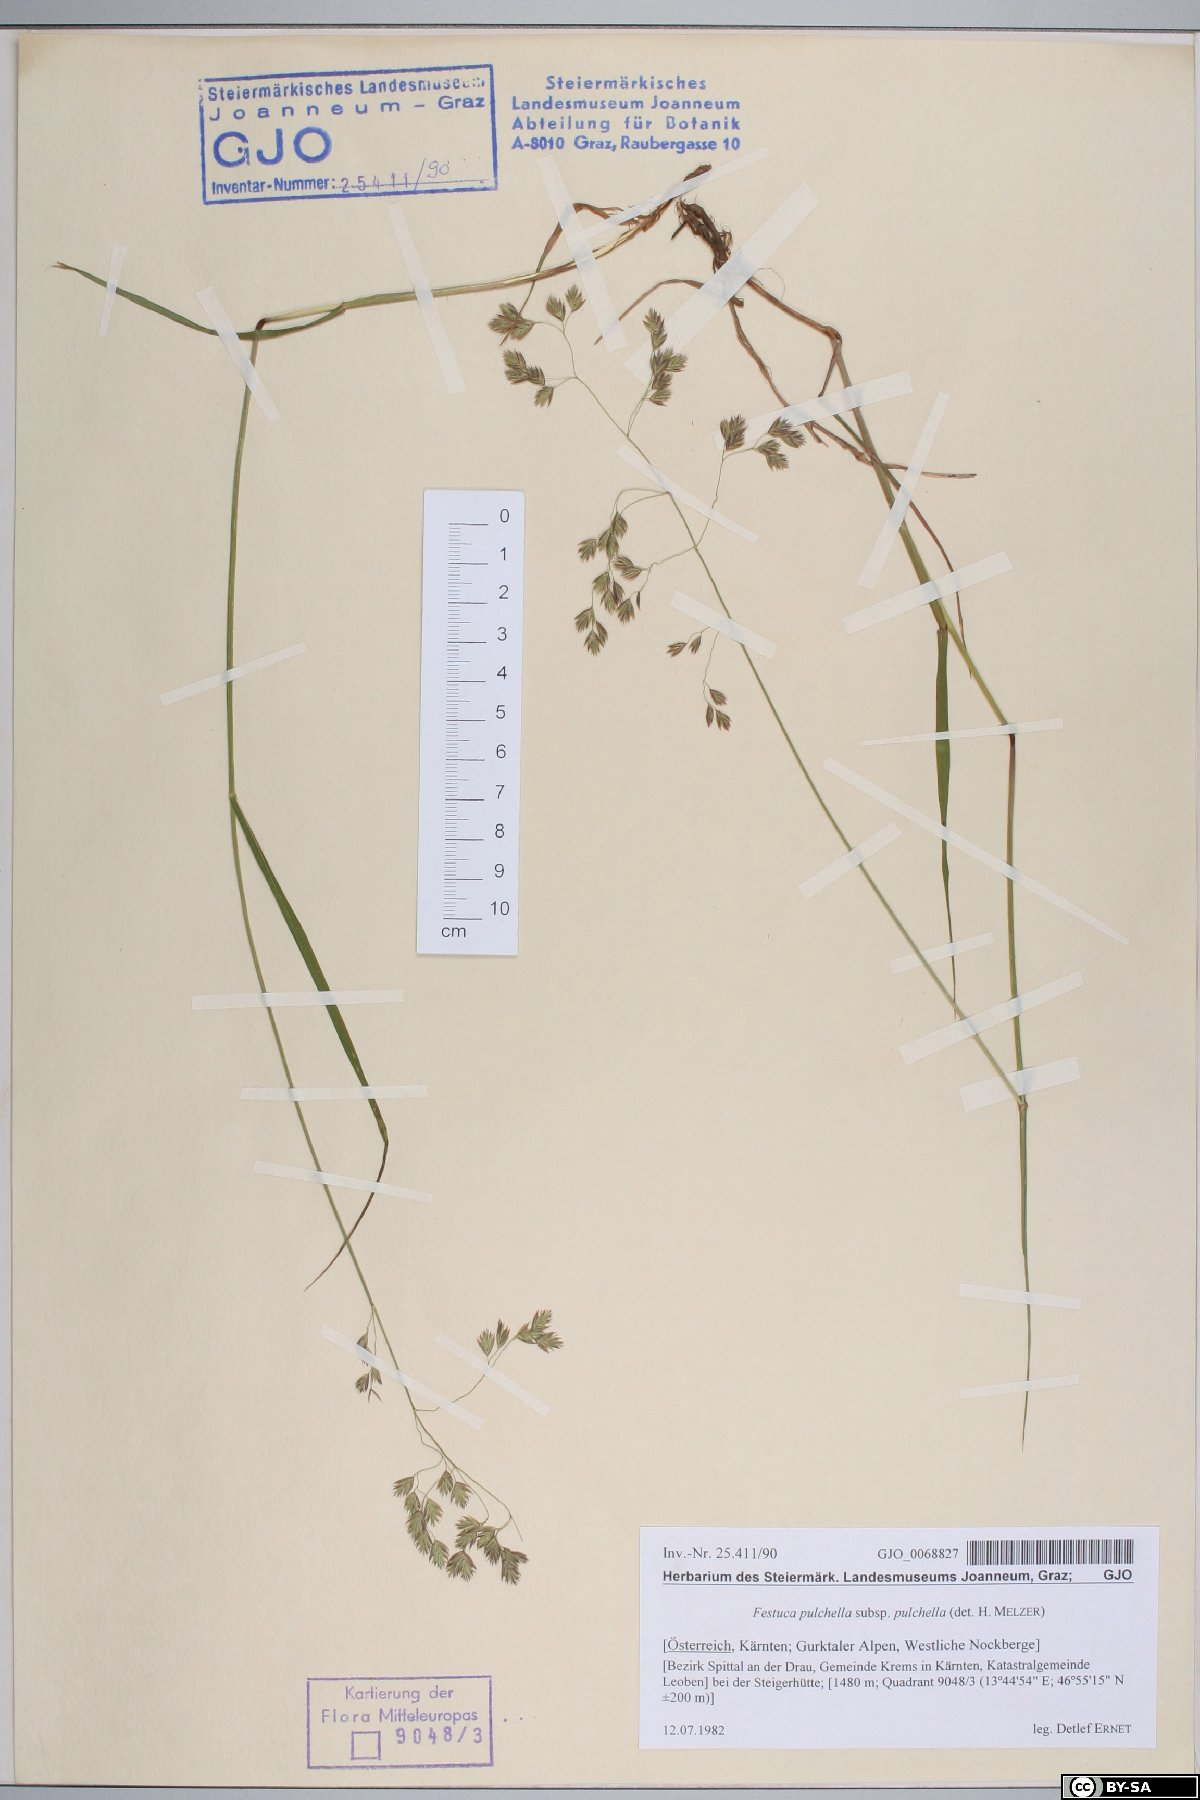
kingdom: Plantae
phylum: Tracheophyta
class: Liliopsida
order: Poales
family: Poaceae
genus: Festuca
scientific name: Festuca pulchella
